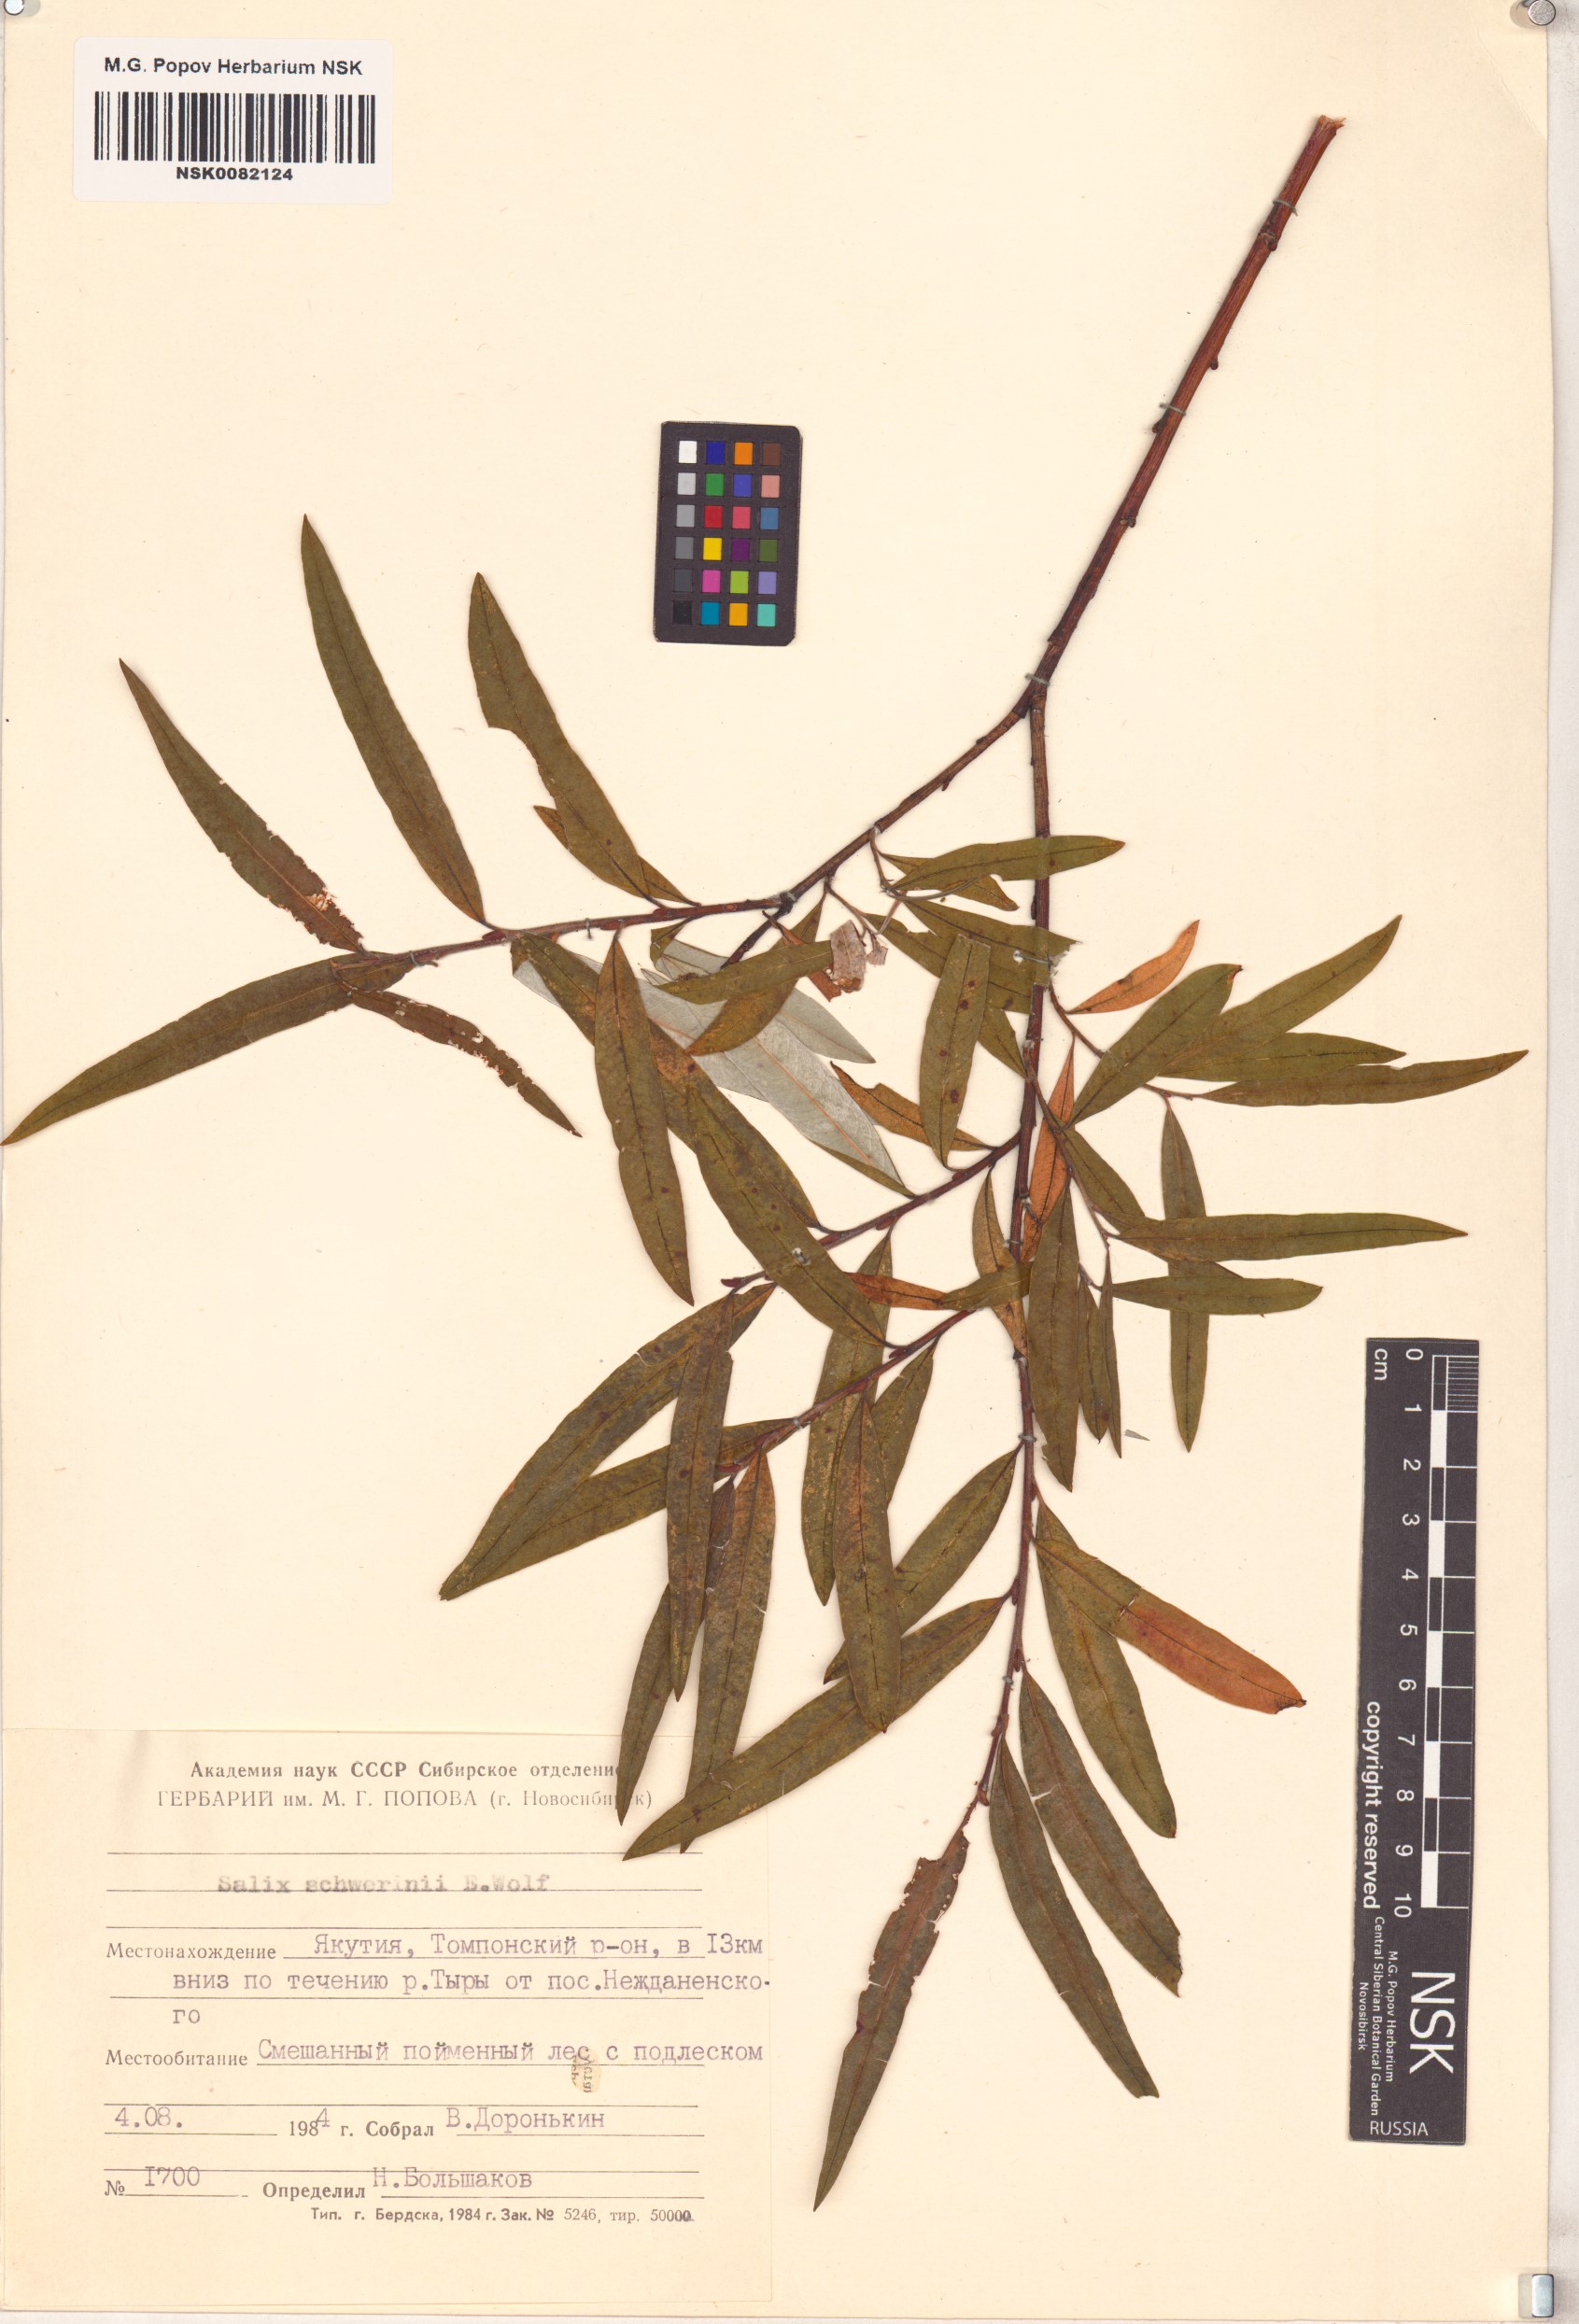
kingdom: Plantae
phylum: Tracheophyta
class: Magnoliopsida
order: Malpighiales
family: Salicaceae
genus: Salix
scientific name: Salix schwerinii
